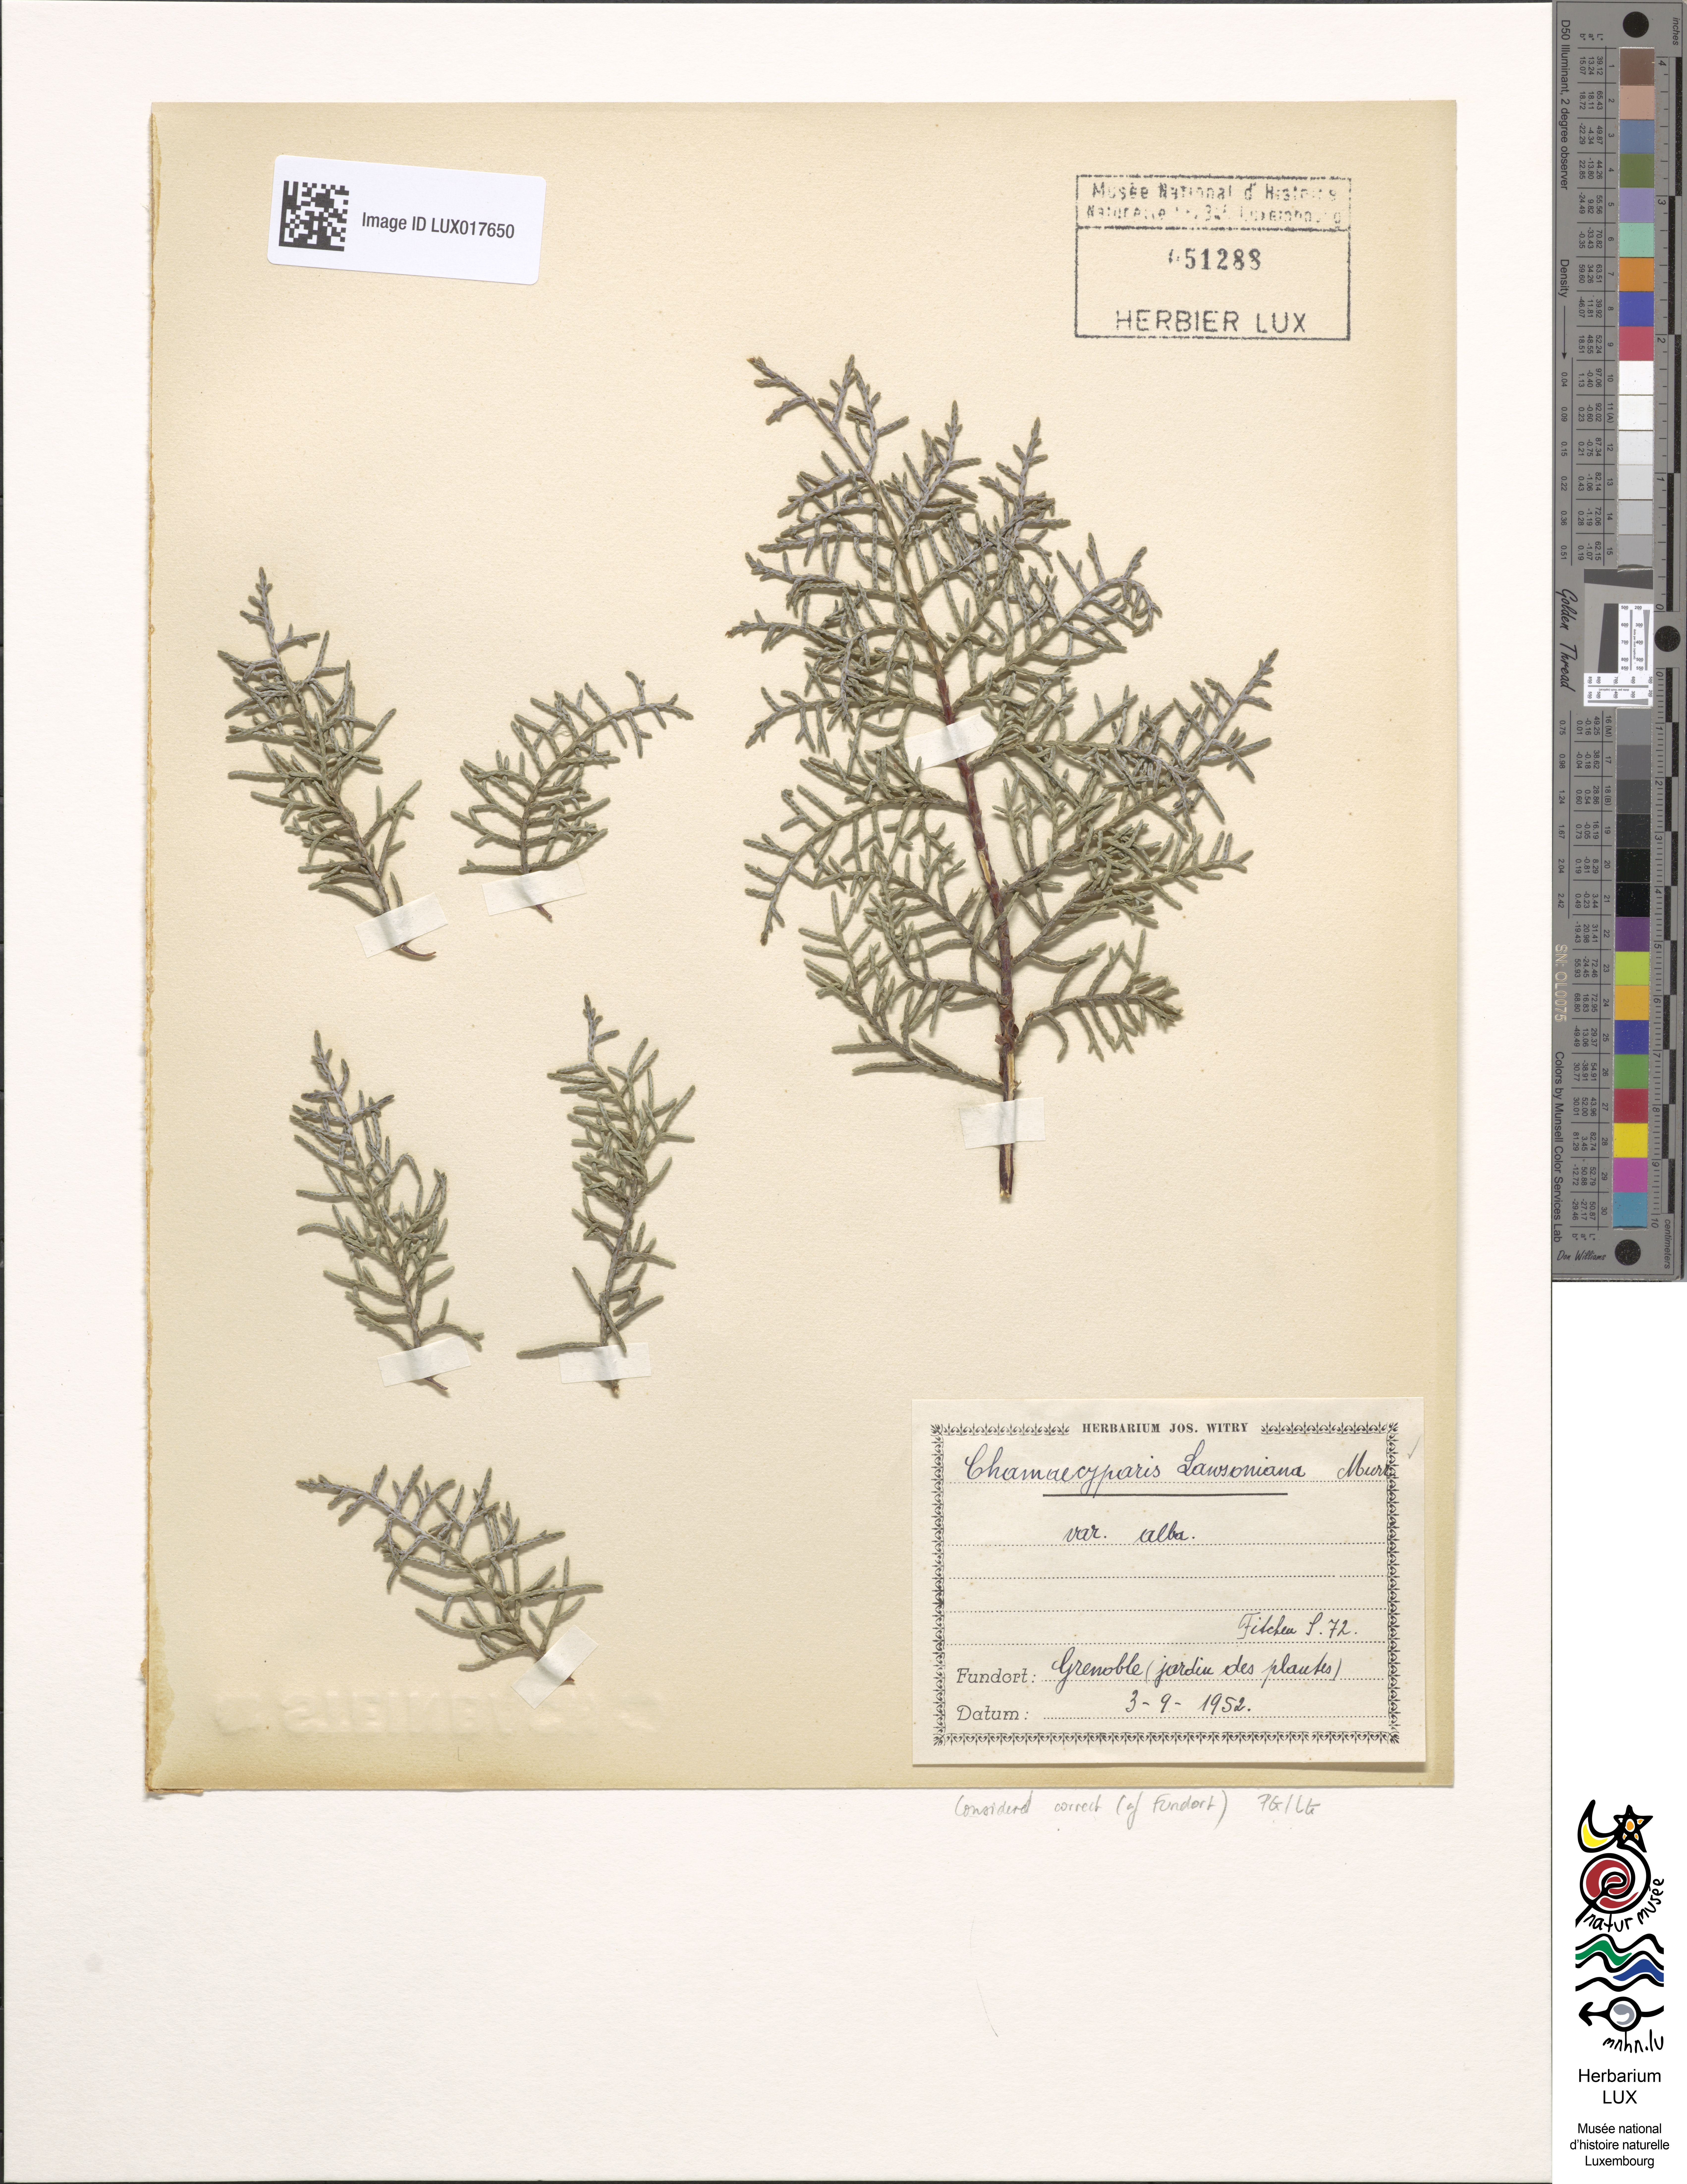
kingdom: Plantae
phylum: Tracheophyta
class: Pinopsida
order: Pinales
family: Cupressaceae
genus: Chamaecyparis
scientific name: Chamaecyparis lawsoniana
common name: Lawson's cypress
